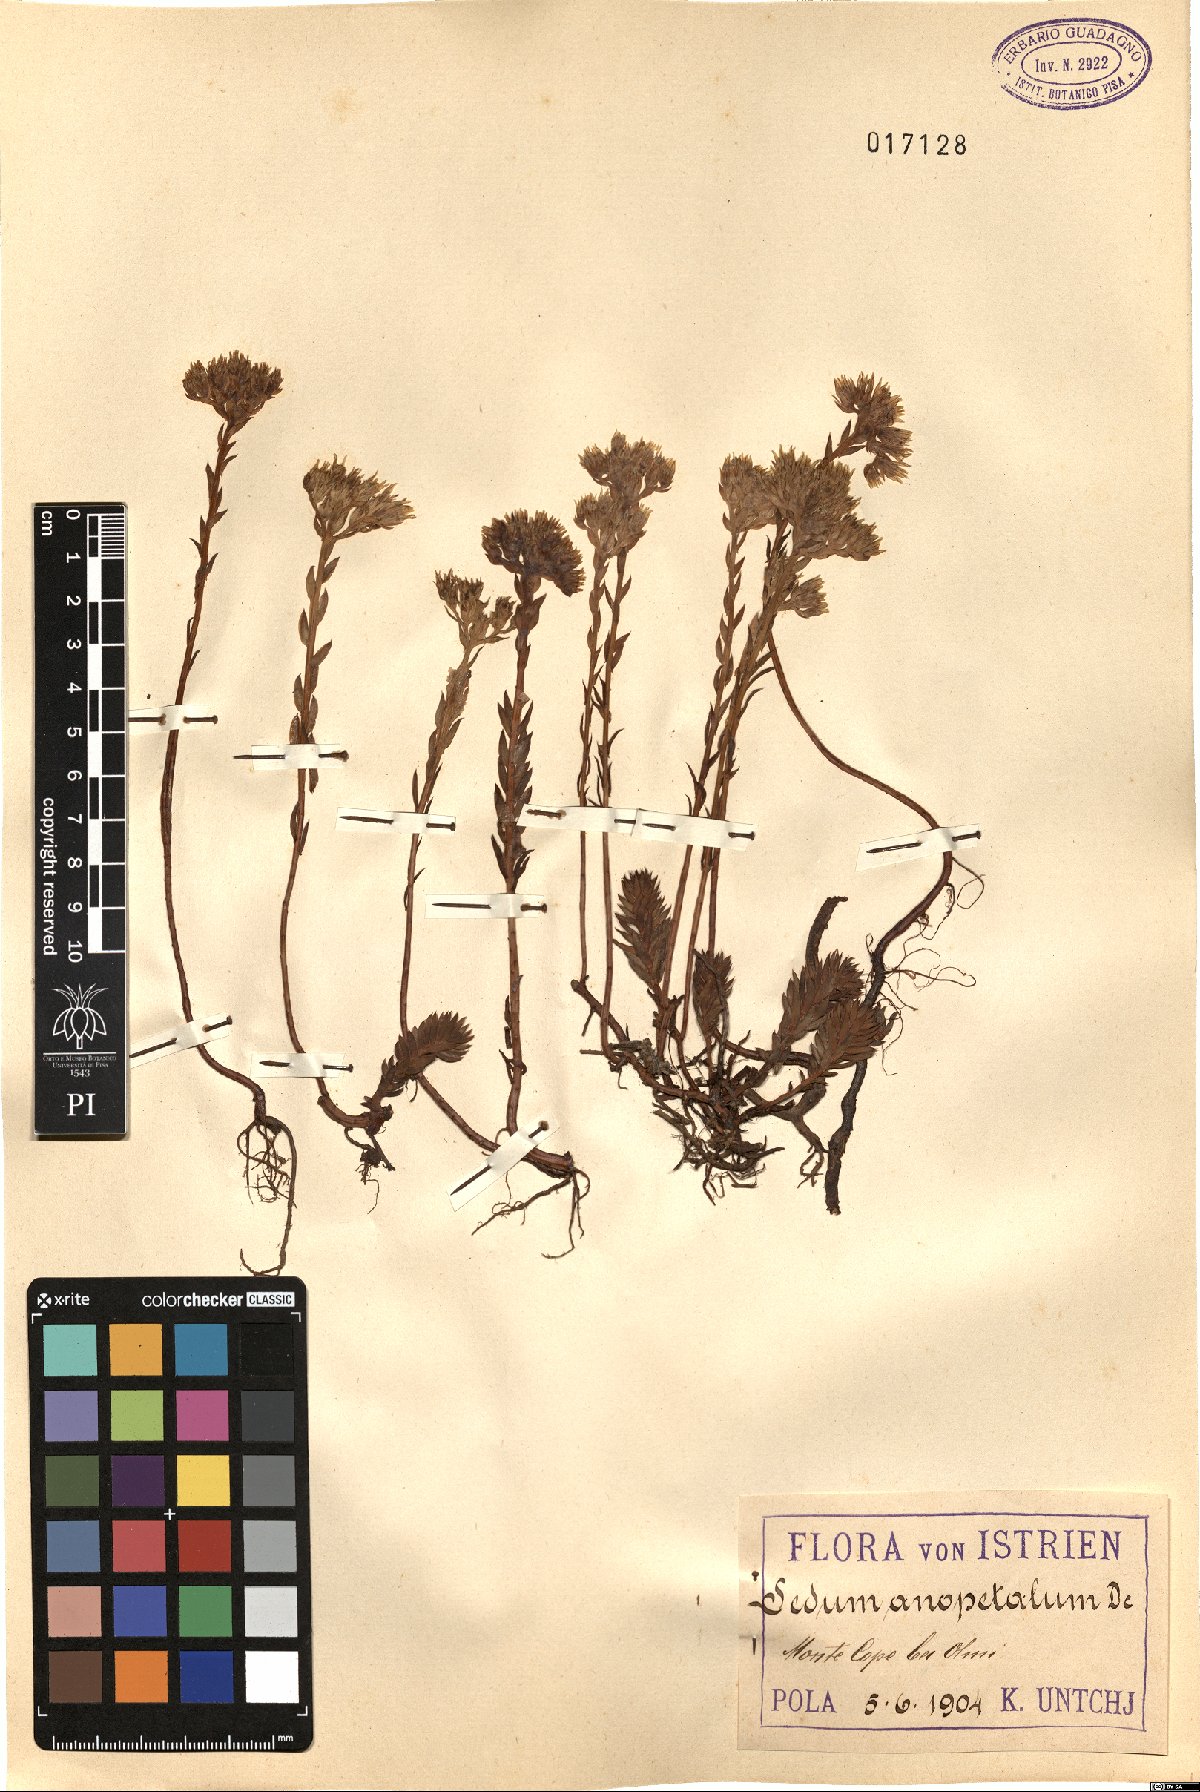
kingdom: Plantae
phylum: Tracheophyta
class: Magnoliopsida
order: Saxifragales
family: Crassulaceae
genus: Petrosedum
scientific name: Petrosedum
